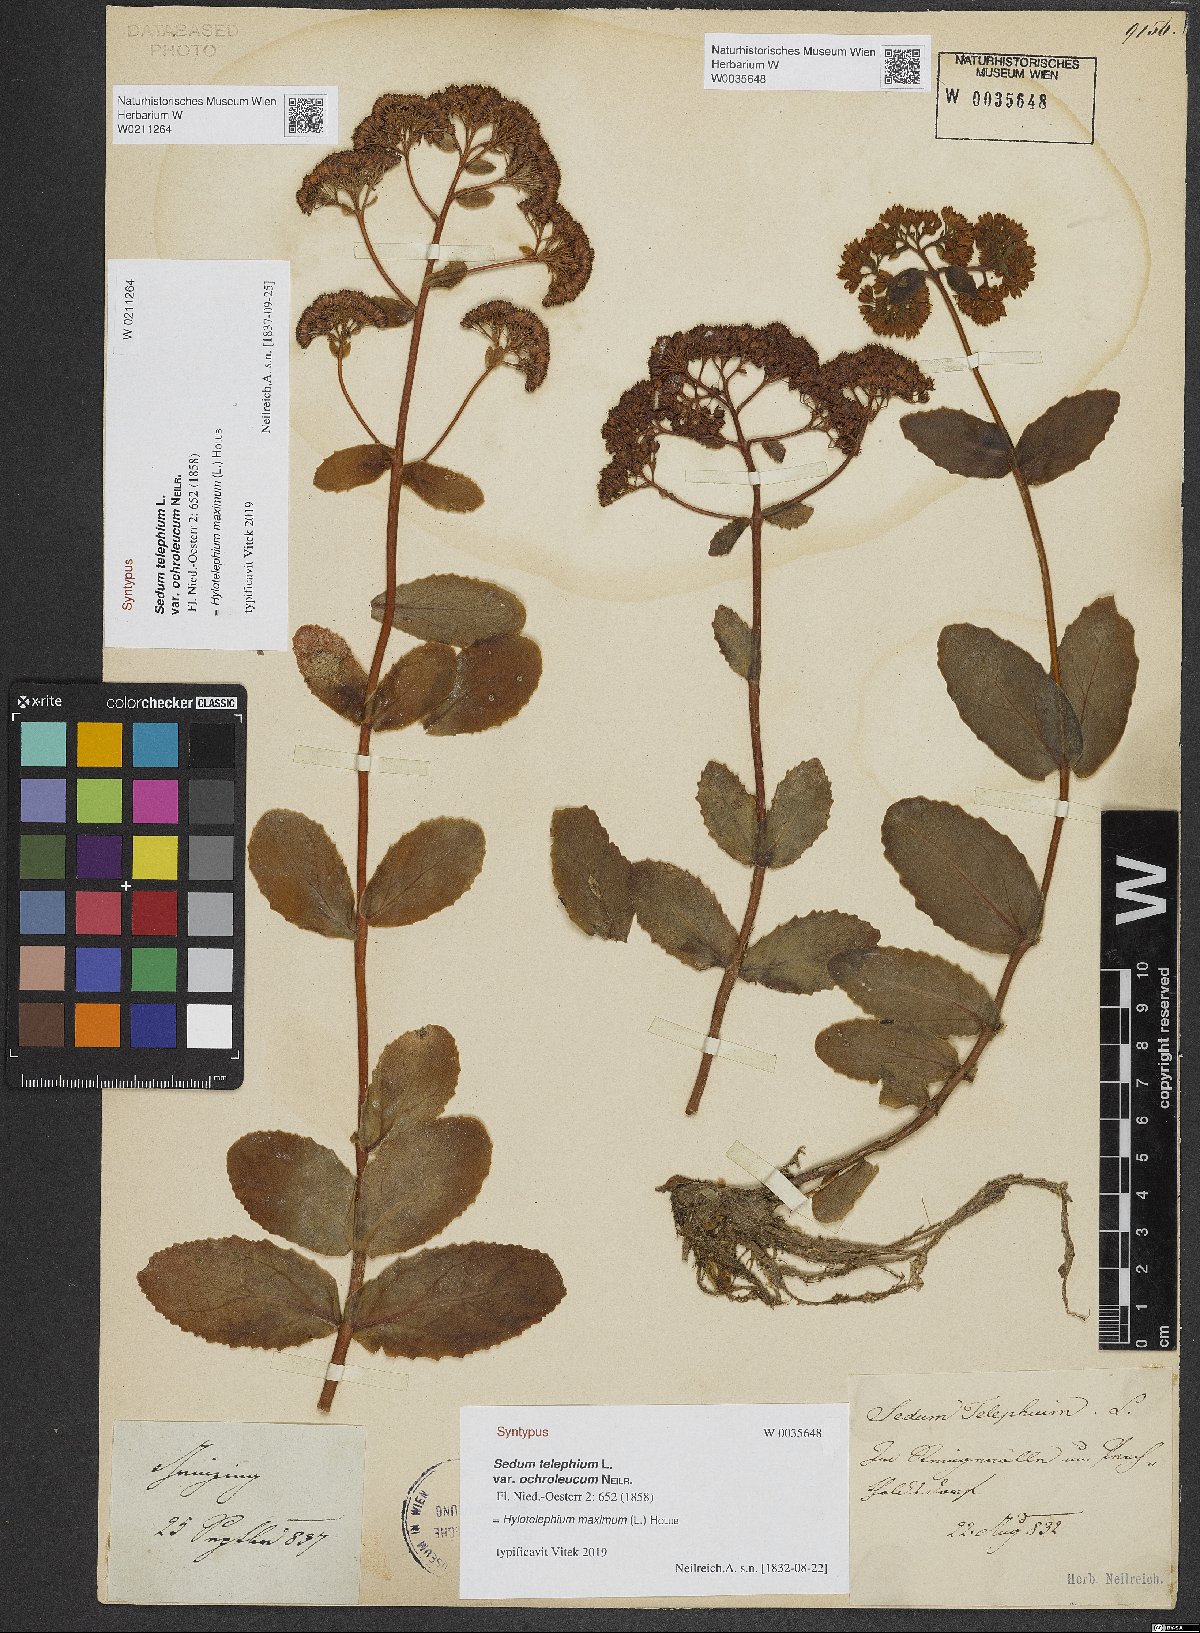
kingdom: Plantae
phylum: Tracheophyta
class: Magnoliopsida
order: Saxifragales
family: Crassulaceae
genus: Hylotelephium
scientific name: Hylotelephium telephium
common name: Live-forever
